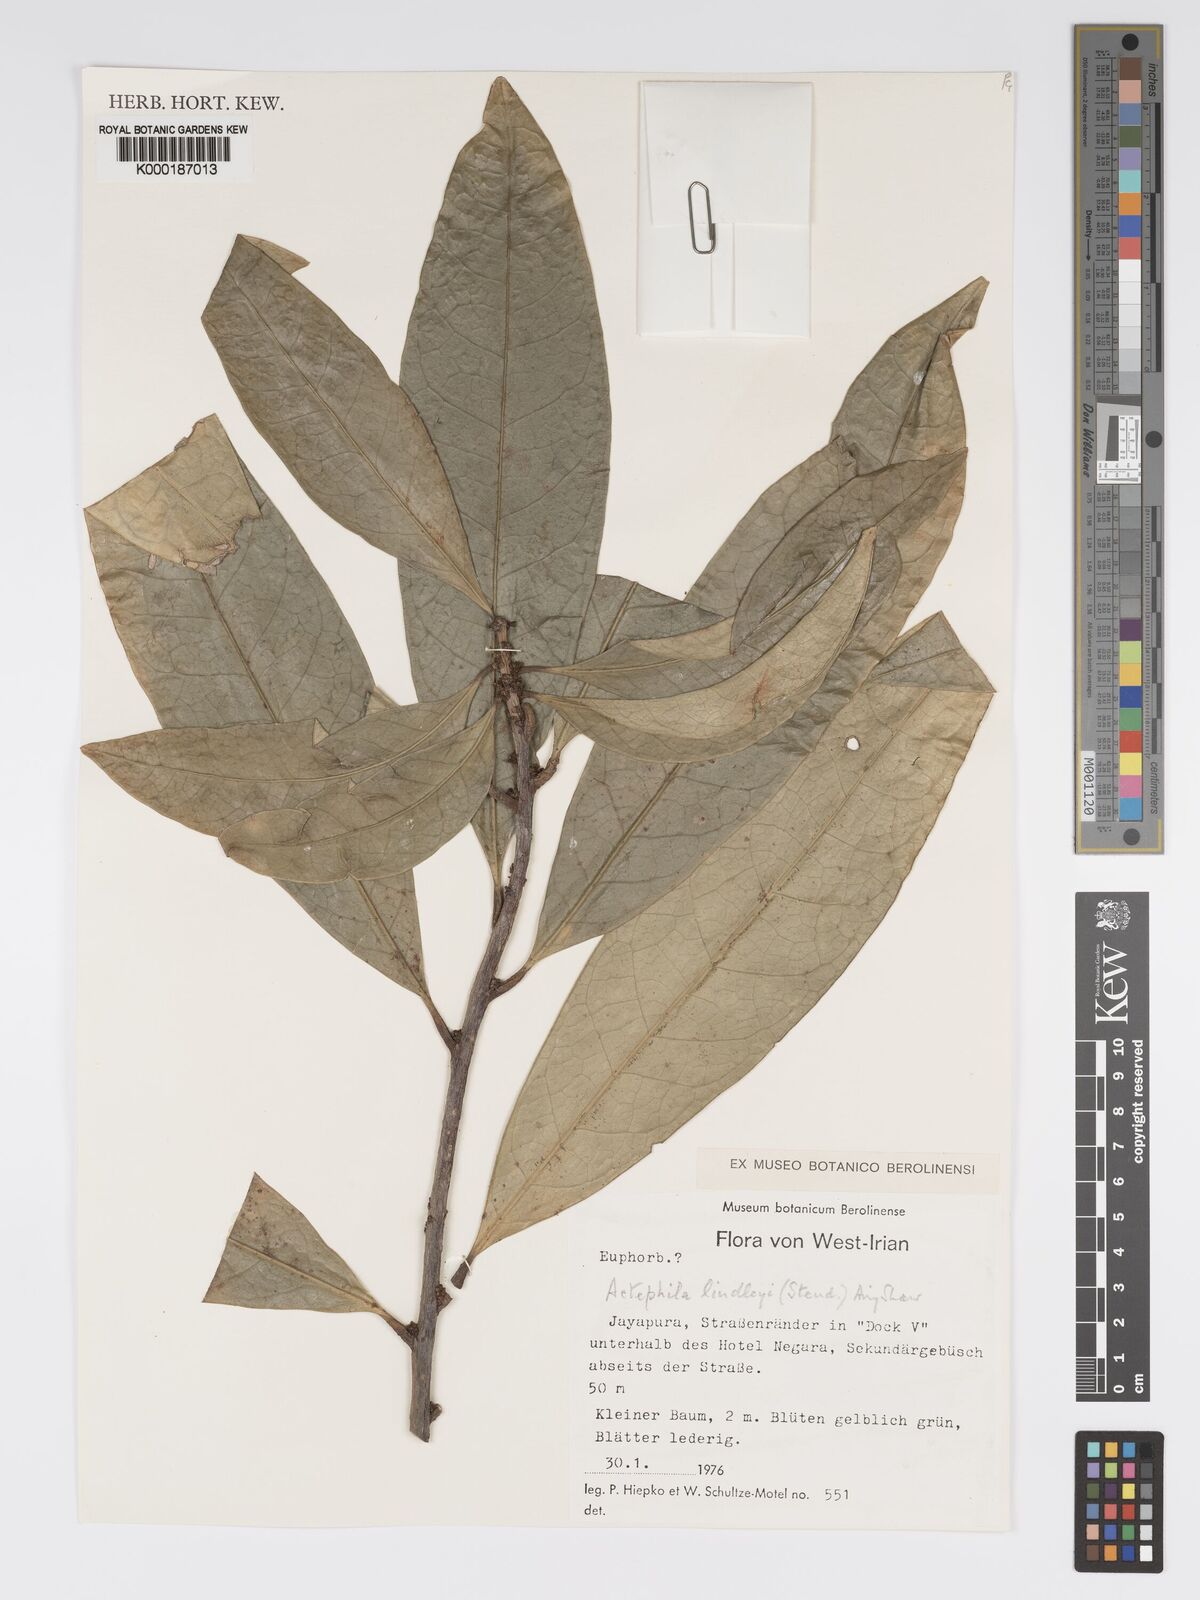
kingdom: Plantae
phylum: Tracheophyta
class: Magnoliopsida
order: Malpighiales
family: Phyllanthaceae
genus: Actephila
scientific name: Actephila lindleyi
